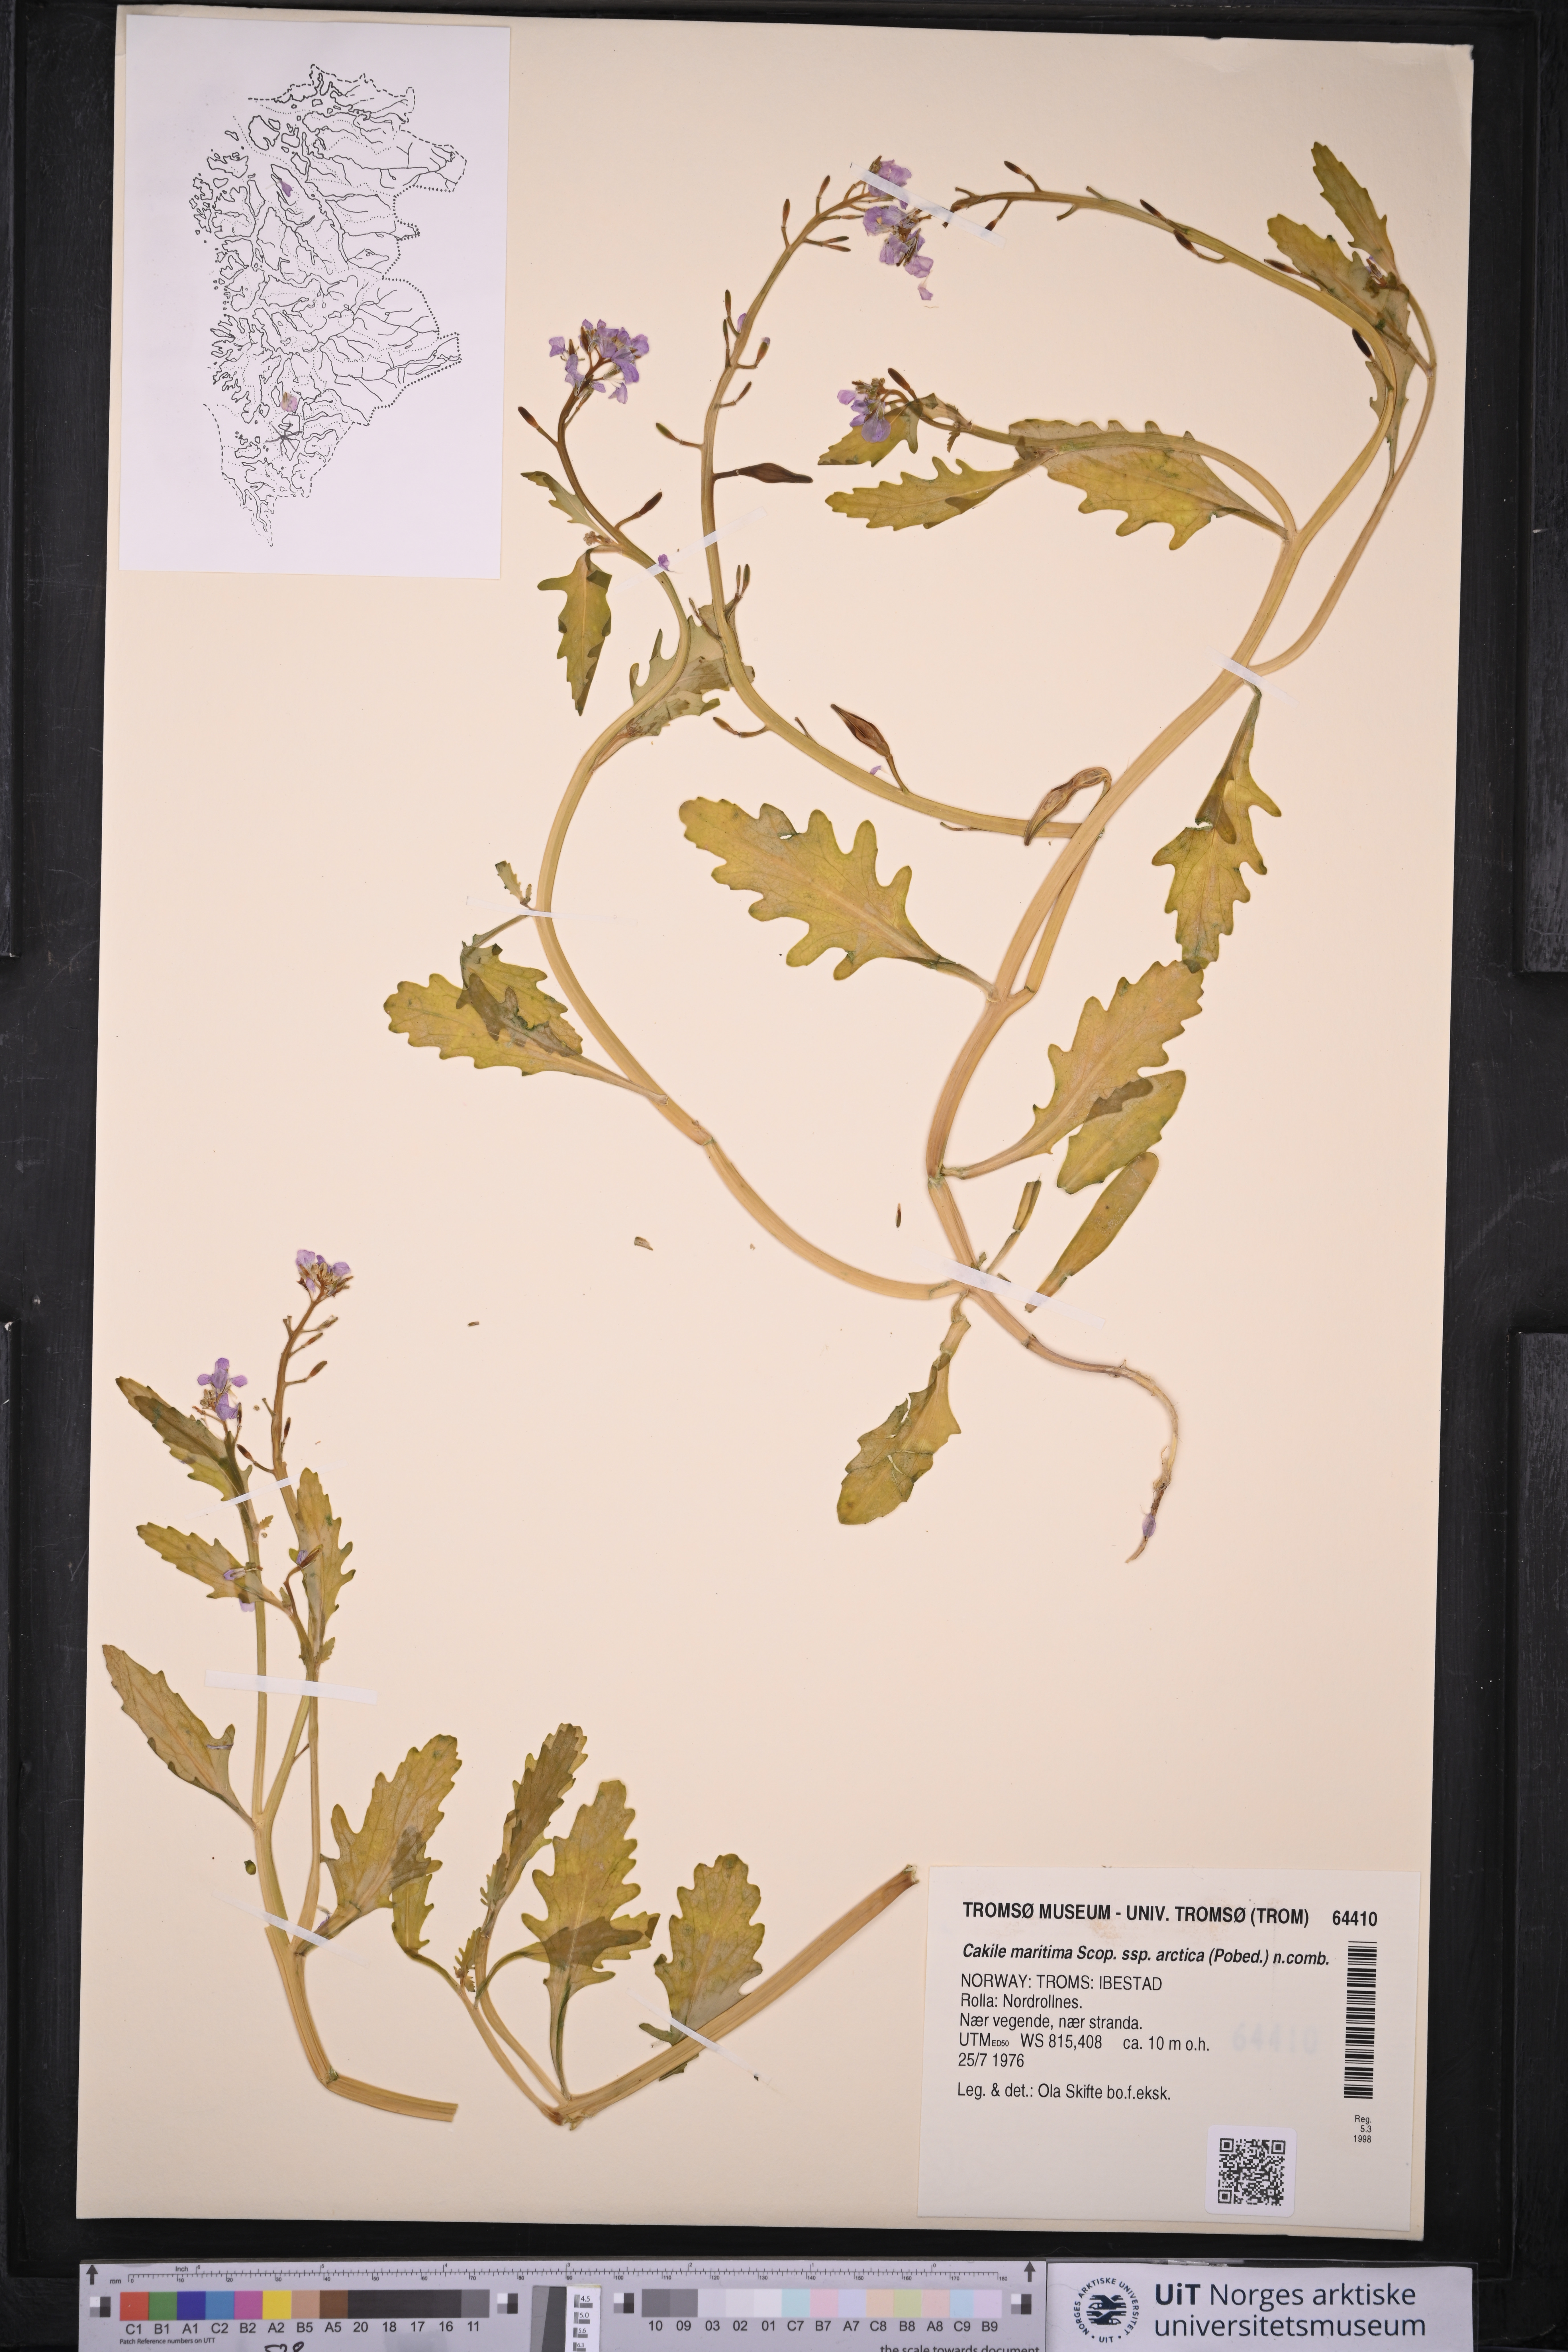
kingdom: Plantae
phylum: Tracheophyta
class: Magnoliopsida
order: Brassicales
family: Brassicaceae
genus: Cakile
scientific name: Cakile arctica
